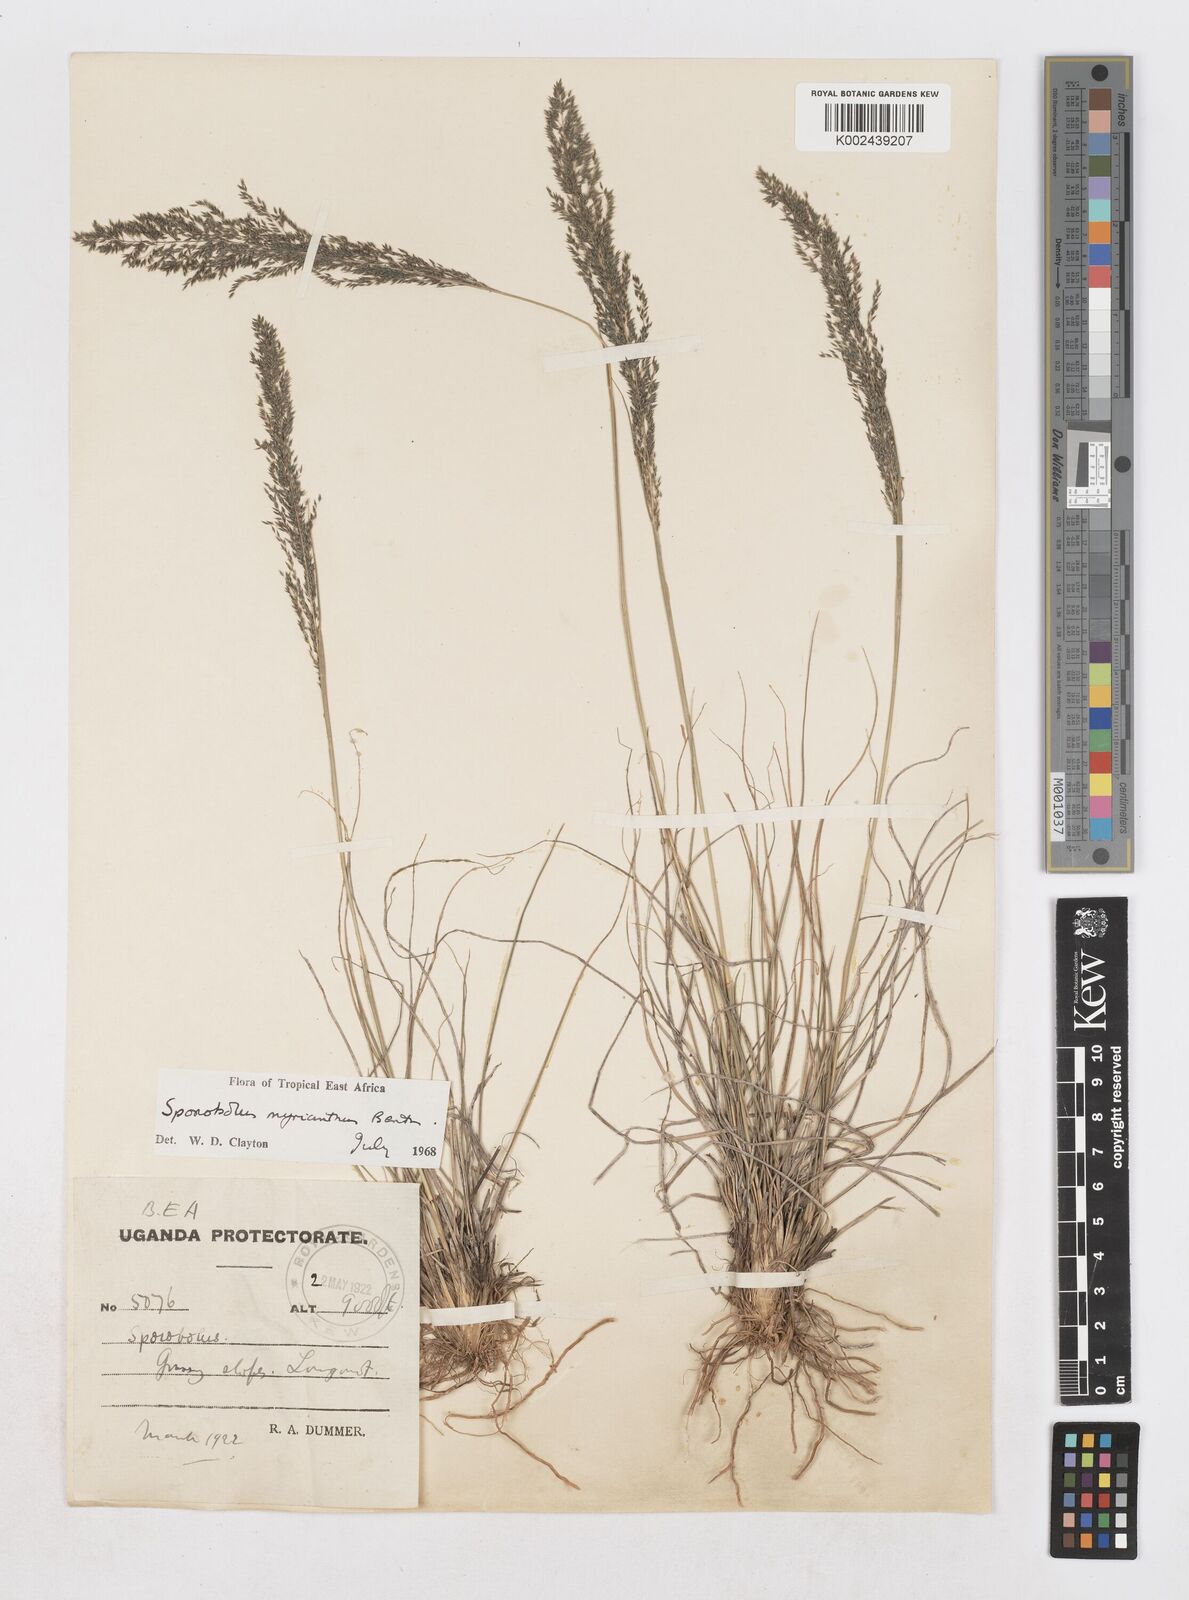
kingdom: Plantae
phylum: Tracheophyta
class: Liliopsida
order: Poales
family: Poaceae
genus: Sporobolus
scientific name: Sporobolus myrianthus
